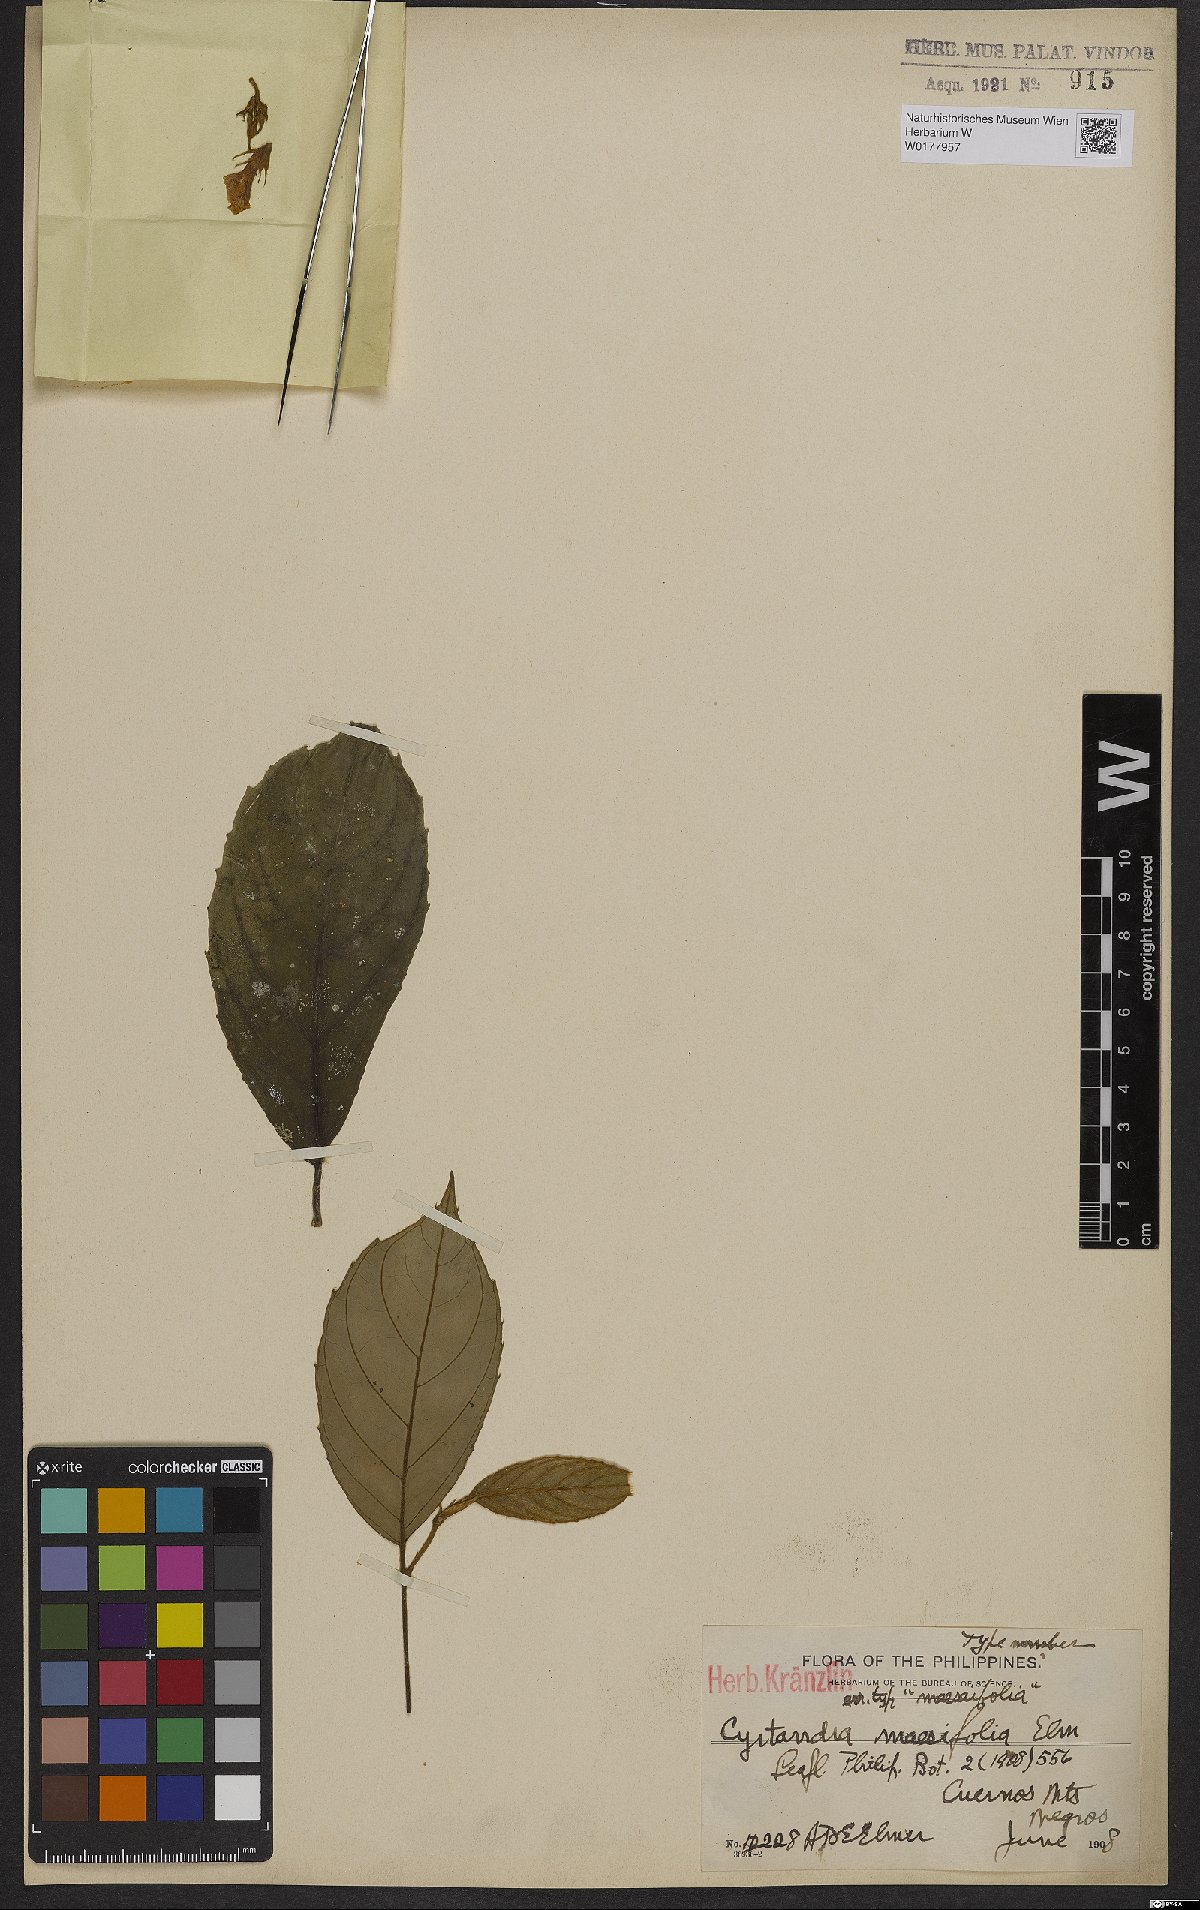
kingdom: Plantae
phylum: Tracheophyta
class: Magnoliopsida
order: Lamiales
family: Gesneriaceae
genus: Cyrtandra
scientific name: Cyrtandra maesifolia
